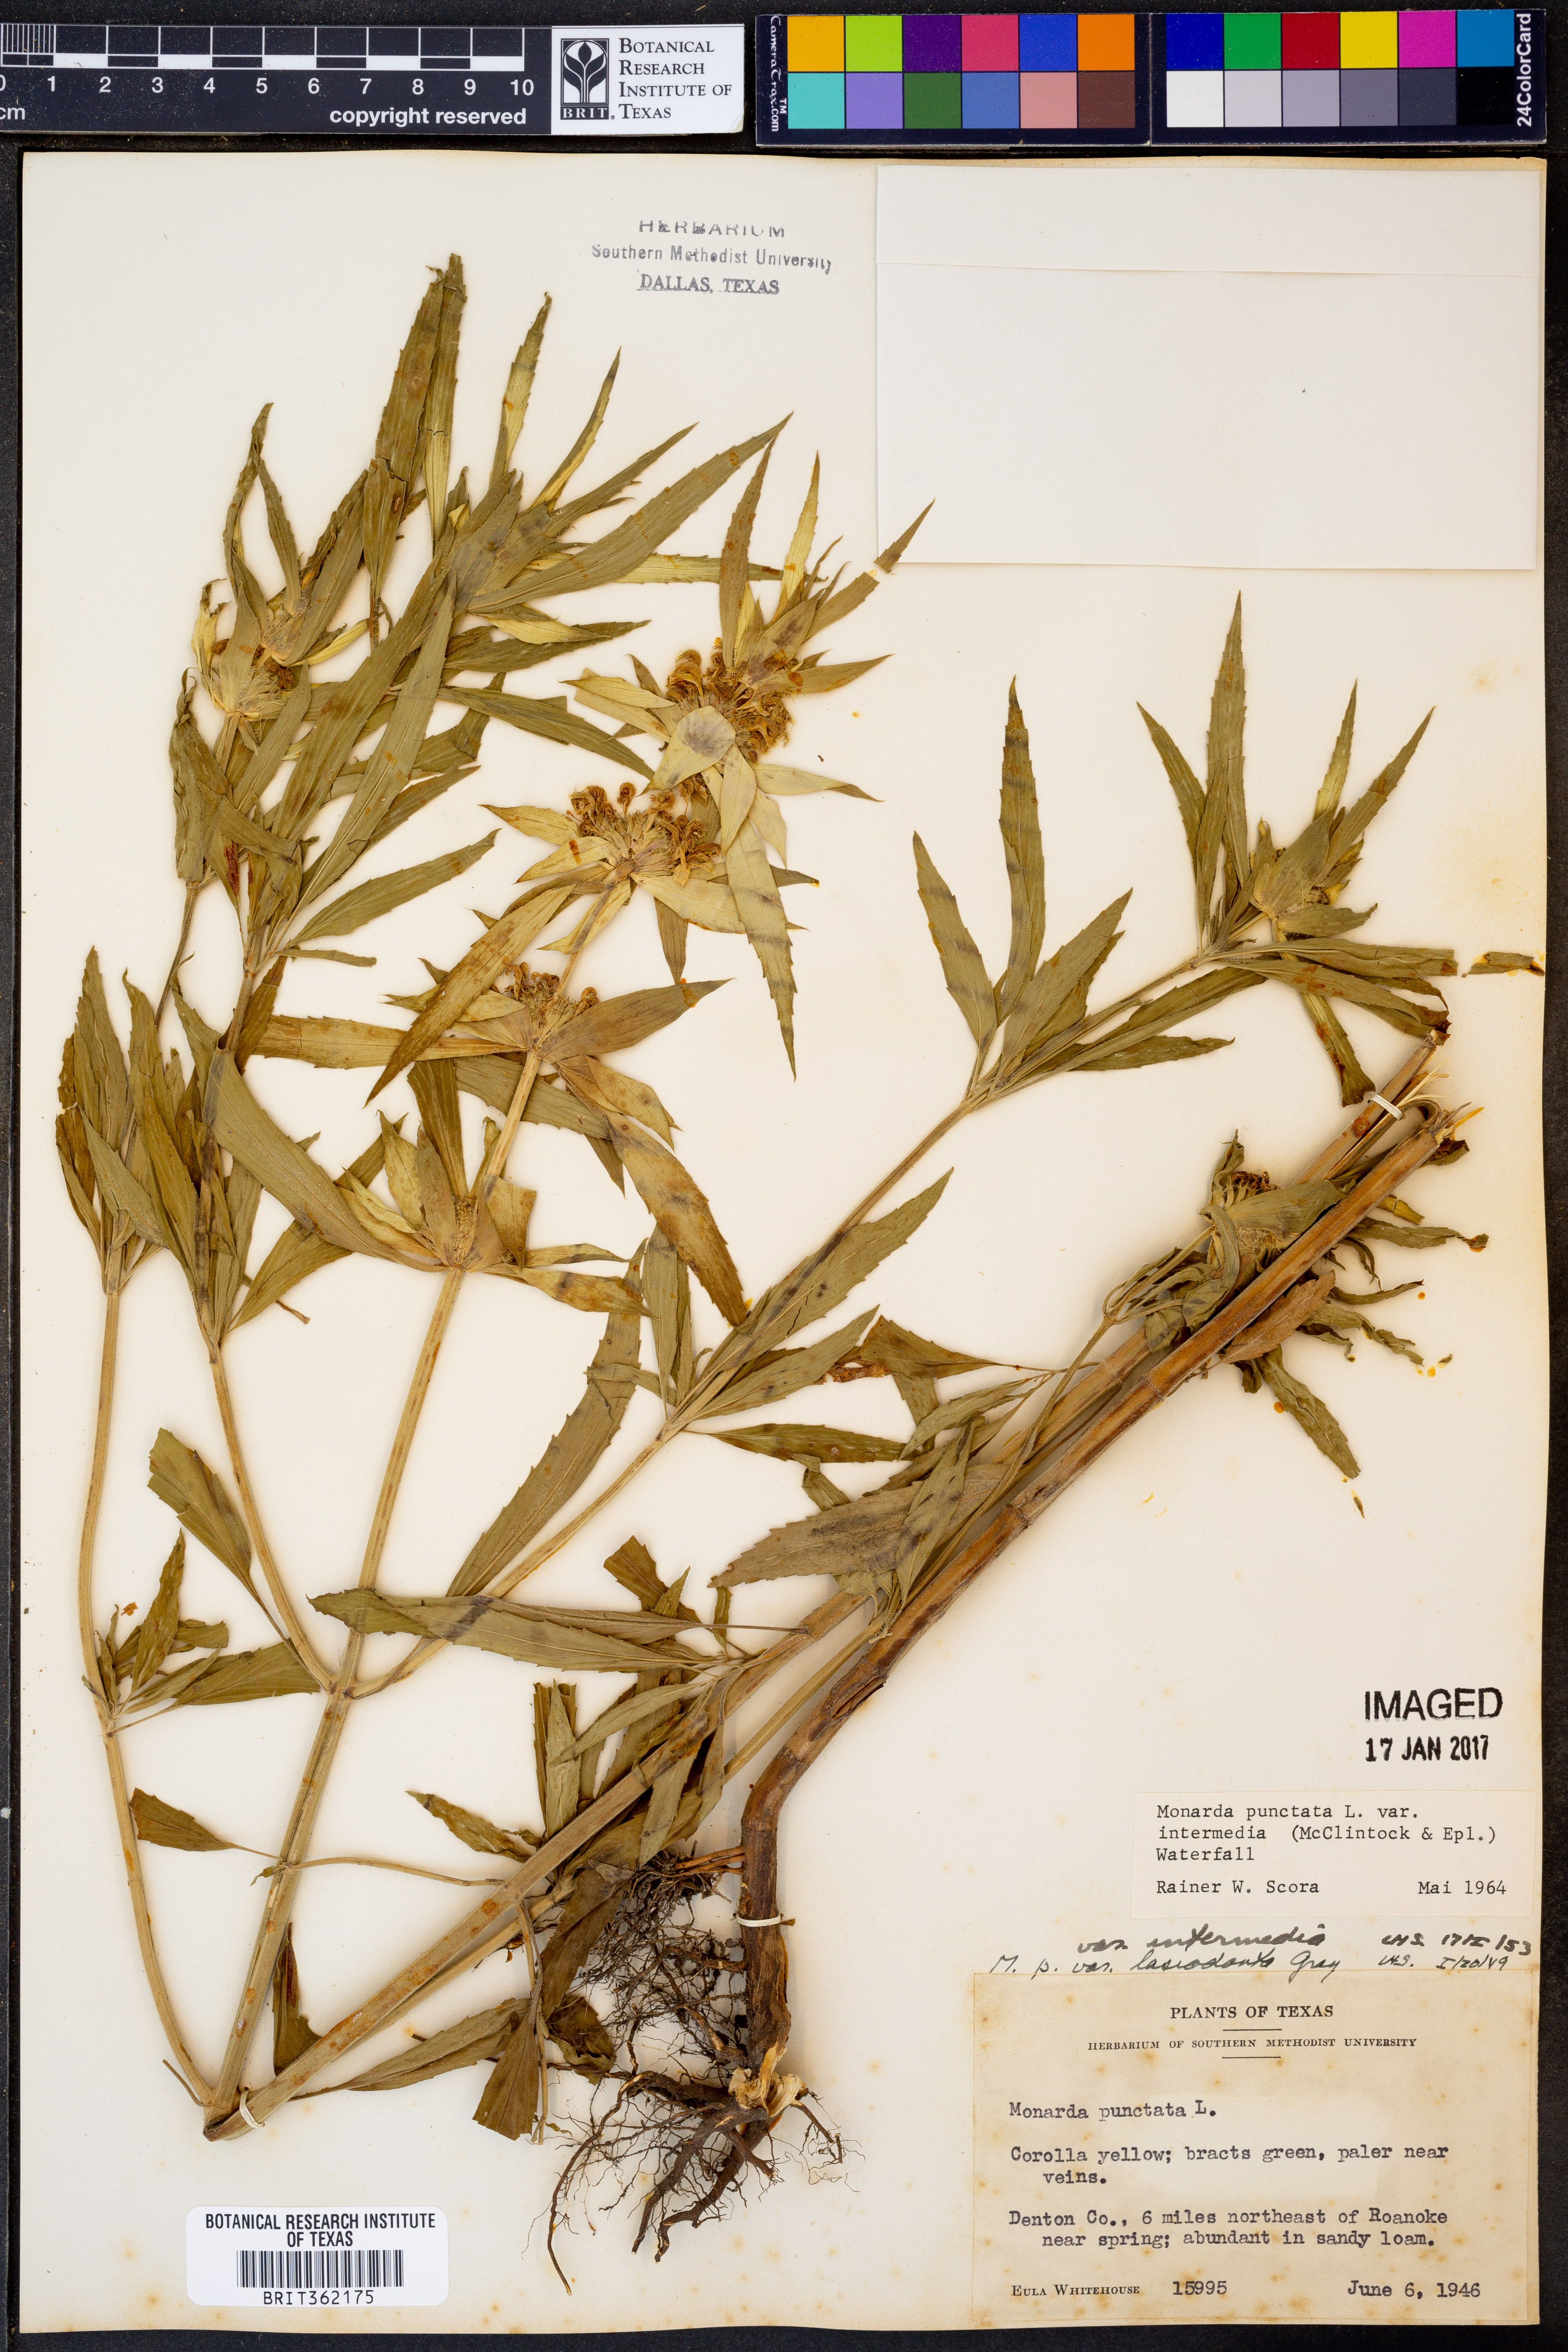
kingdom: Plantae
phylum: Tracheophyta
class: Magnoliopsida
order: Lamiales
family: Lamiaceae
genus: Monarda
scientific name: Monarda punctata
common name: Dotted monarda
